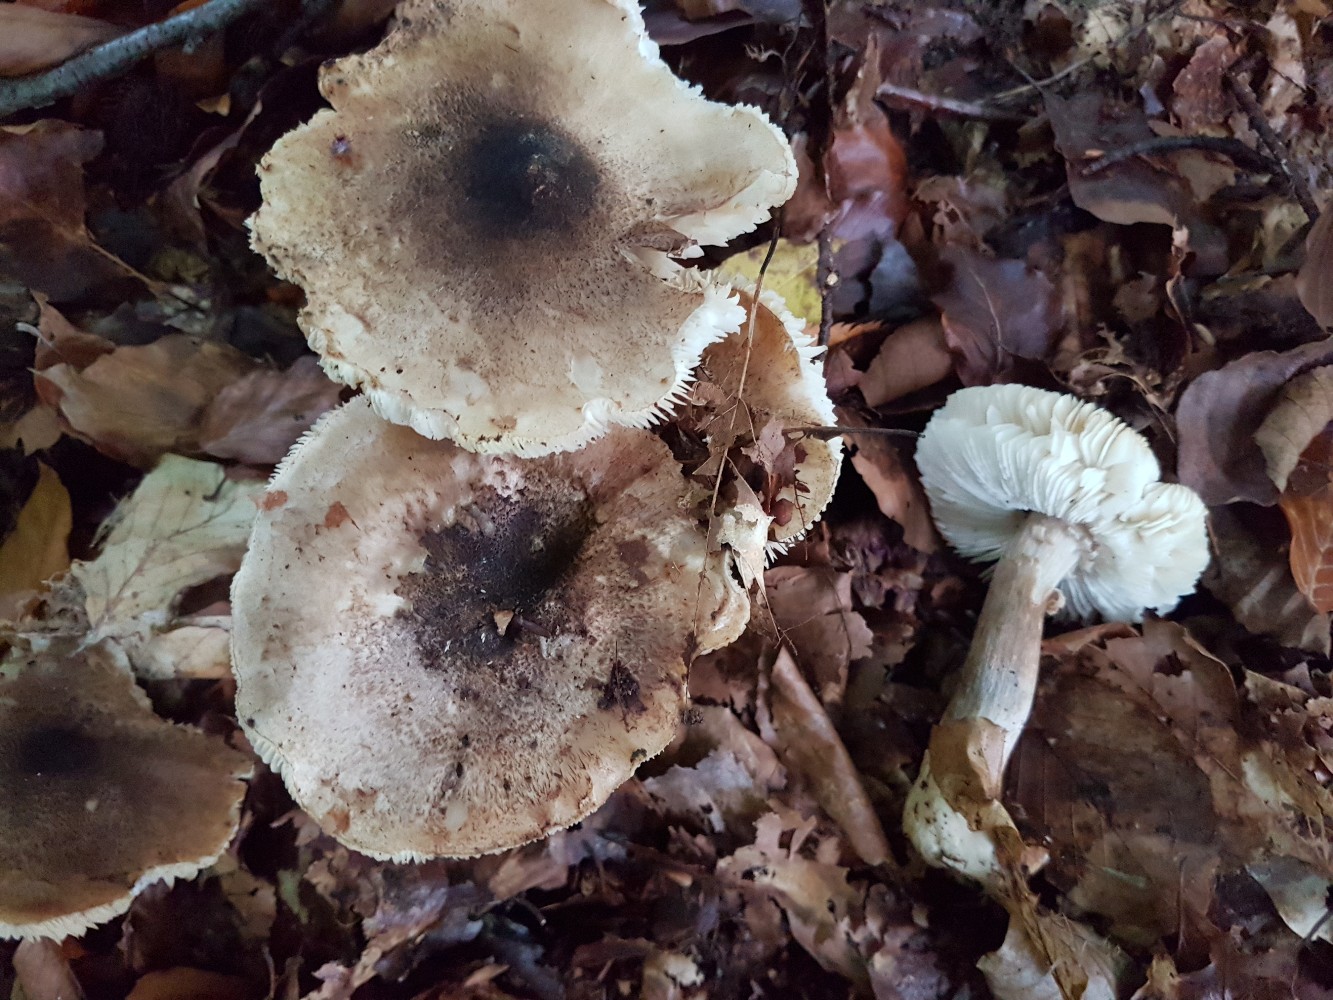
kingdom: Fungi
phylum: Basidiomycota
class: Agaricomycetes
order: Agaricales
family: Tricholomataceae
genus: Tricholoma
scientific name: Tricholoma atrosquamosum
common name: sortskællet ridderhat
